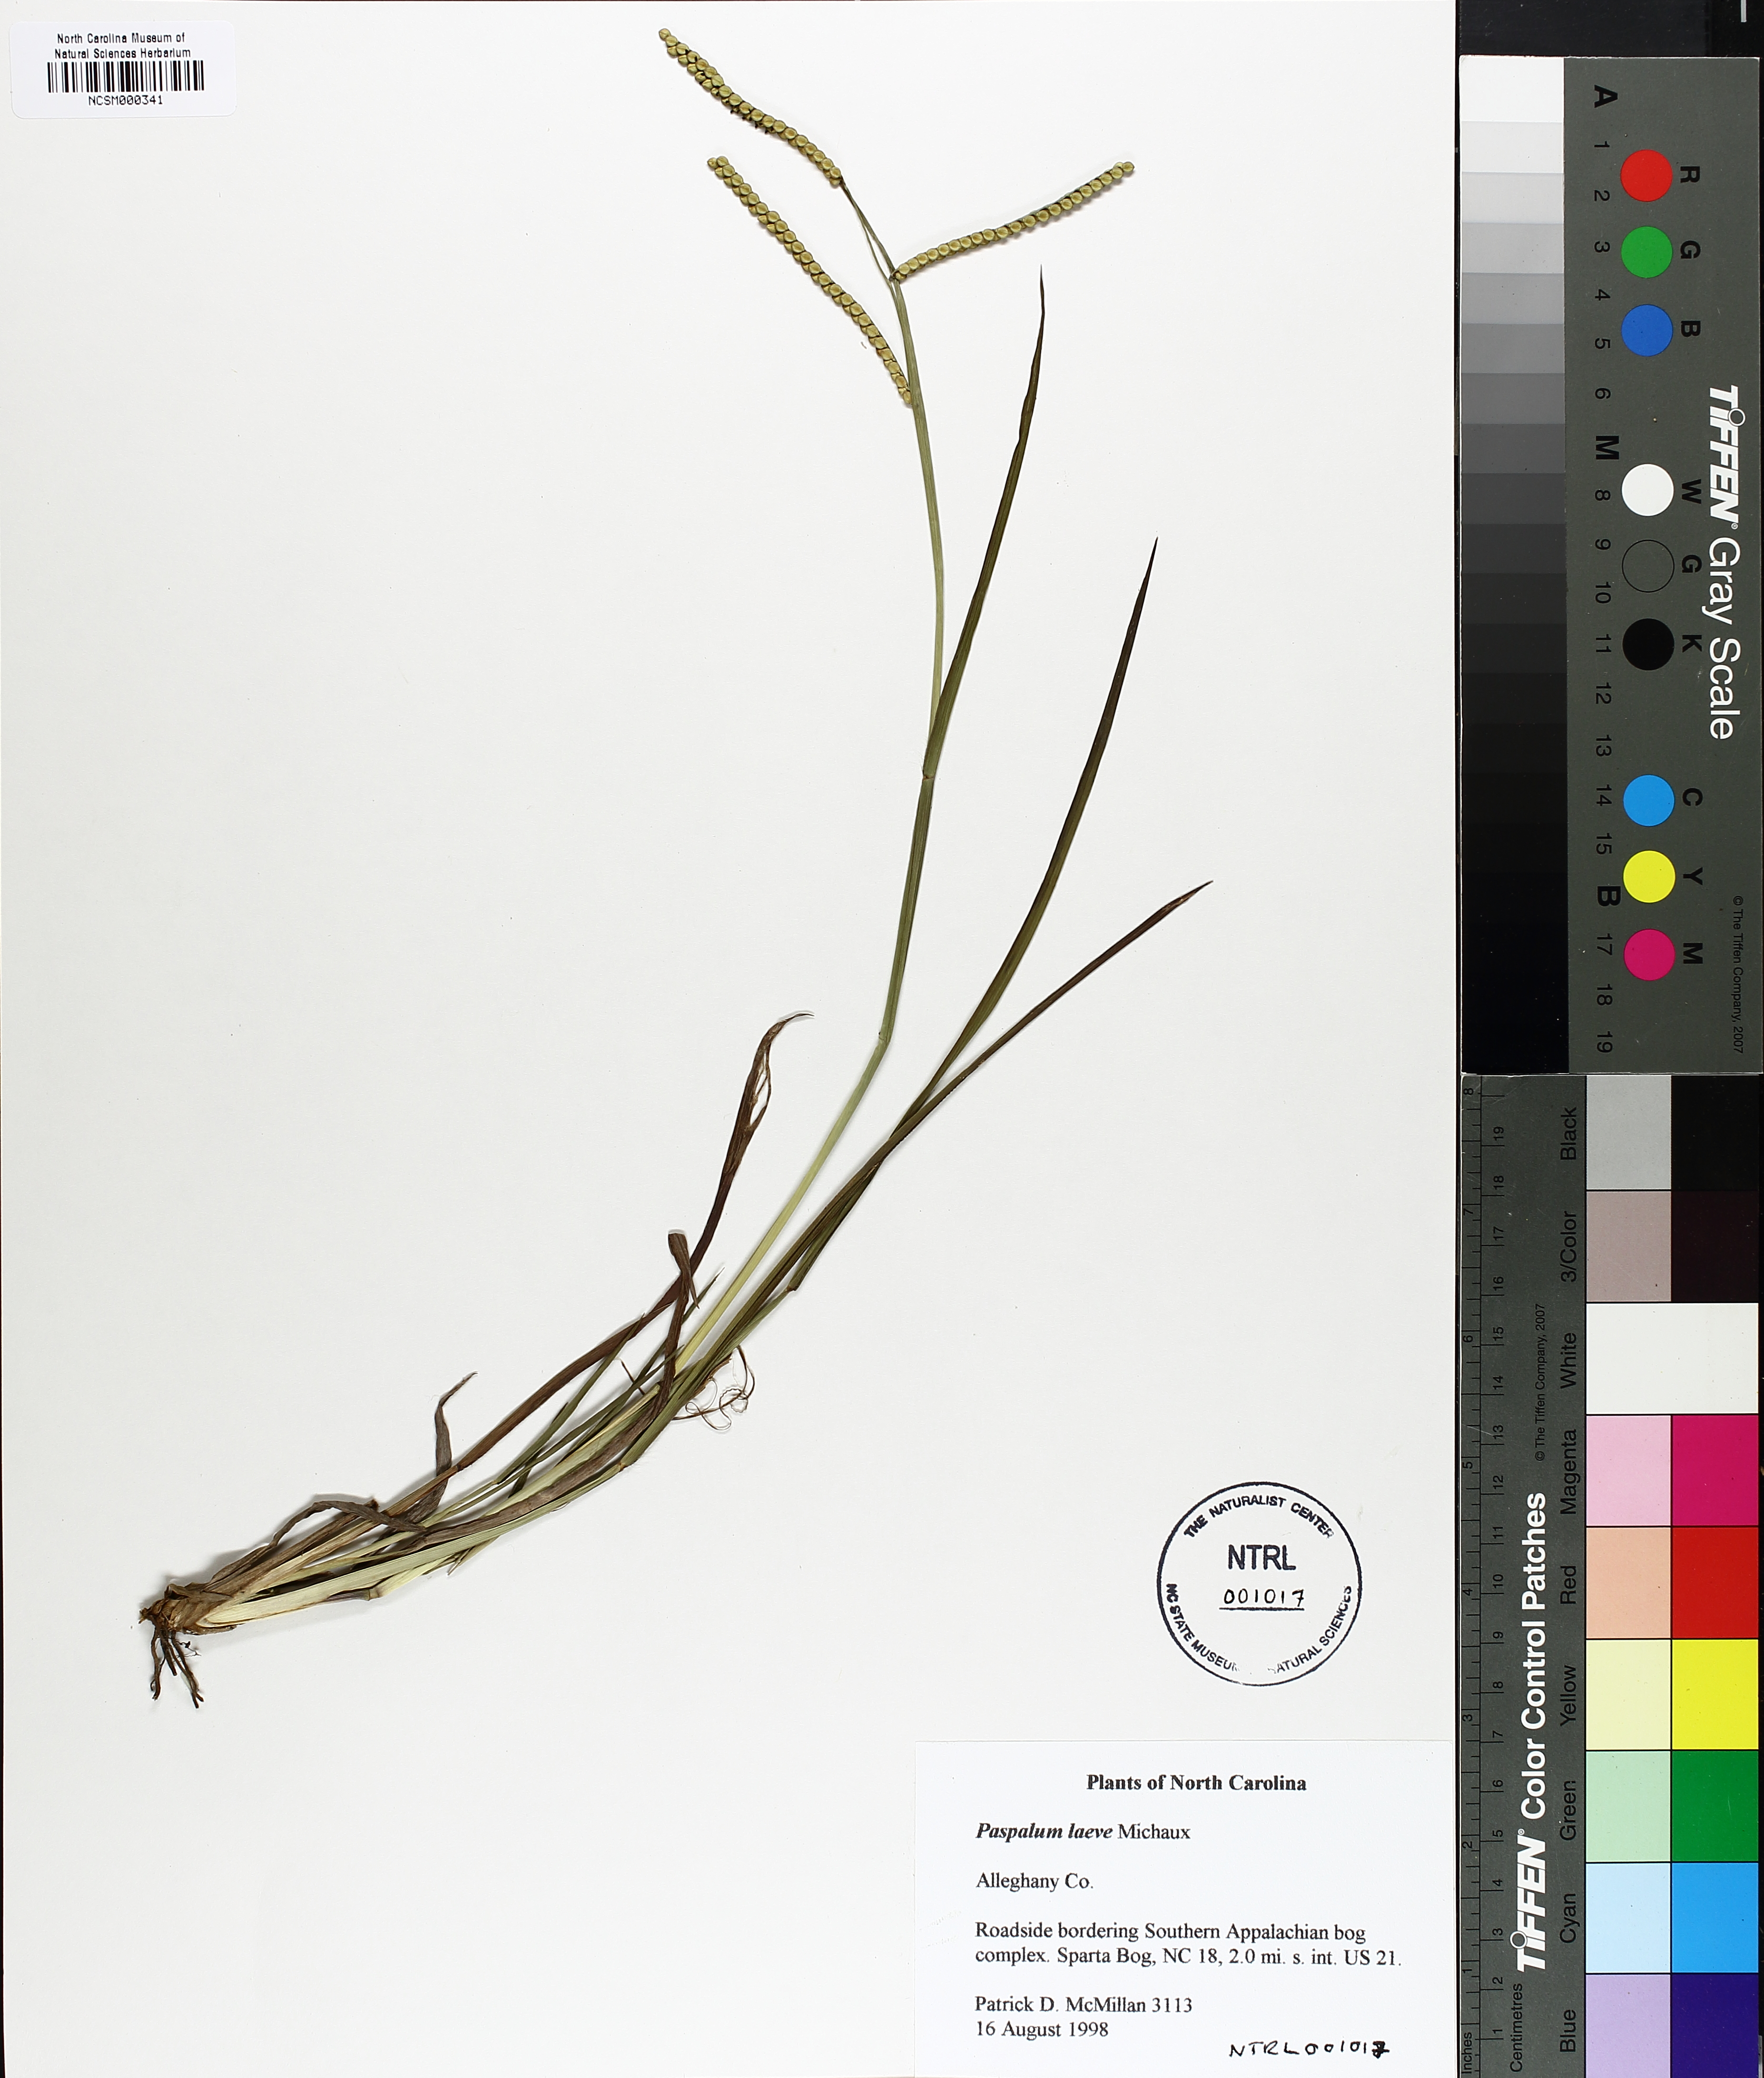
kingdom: Plantae
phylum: Tracheophyta
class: Liliopsida
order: Poales
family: Poaceae
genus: Paspalum
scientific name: Paspalum laeve
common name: Field paspalum
